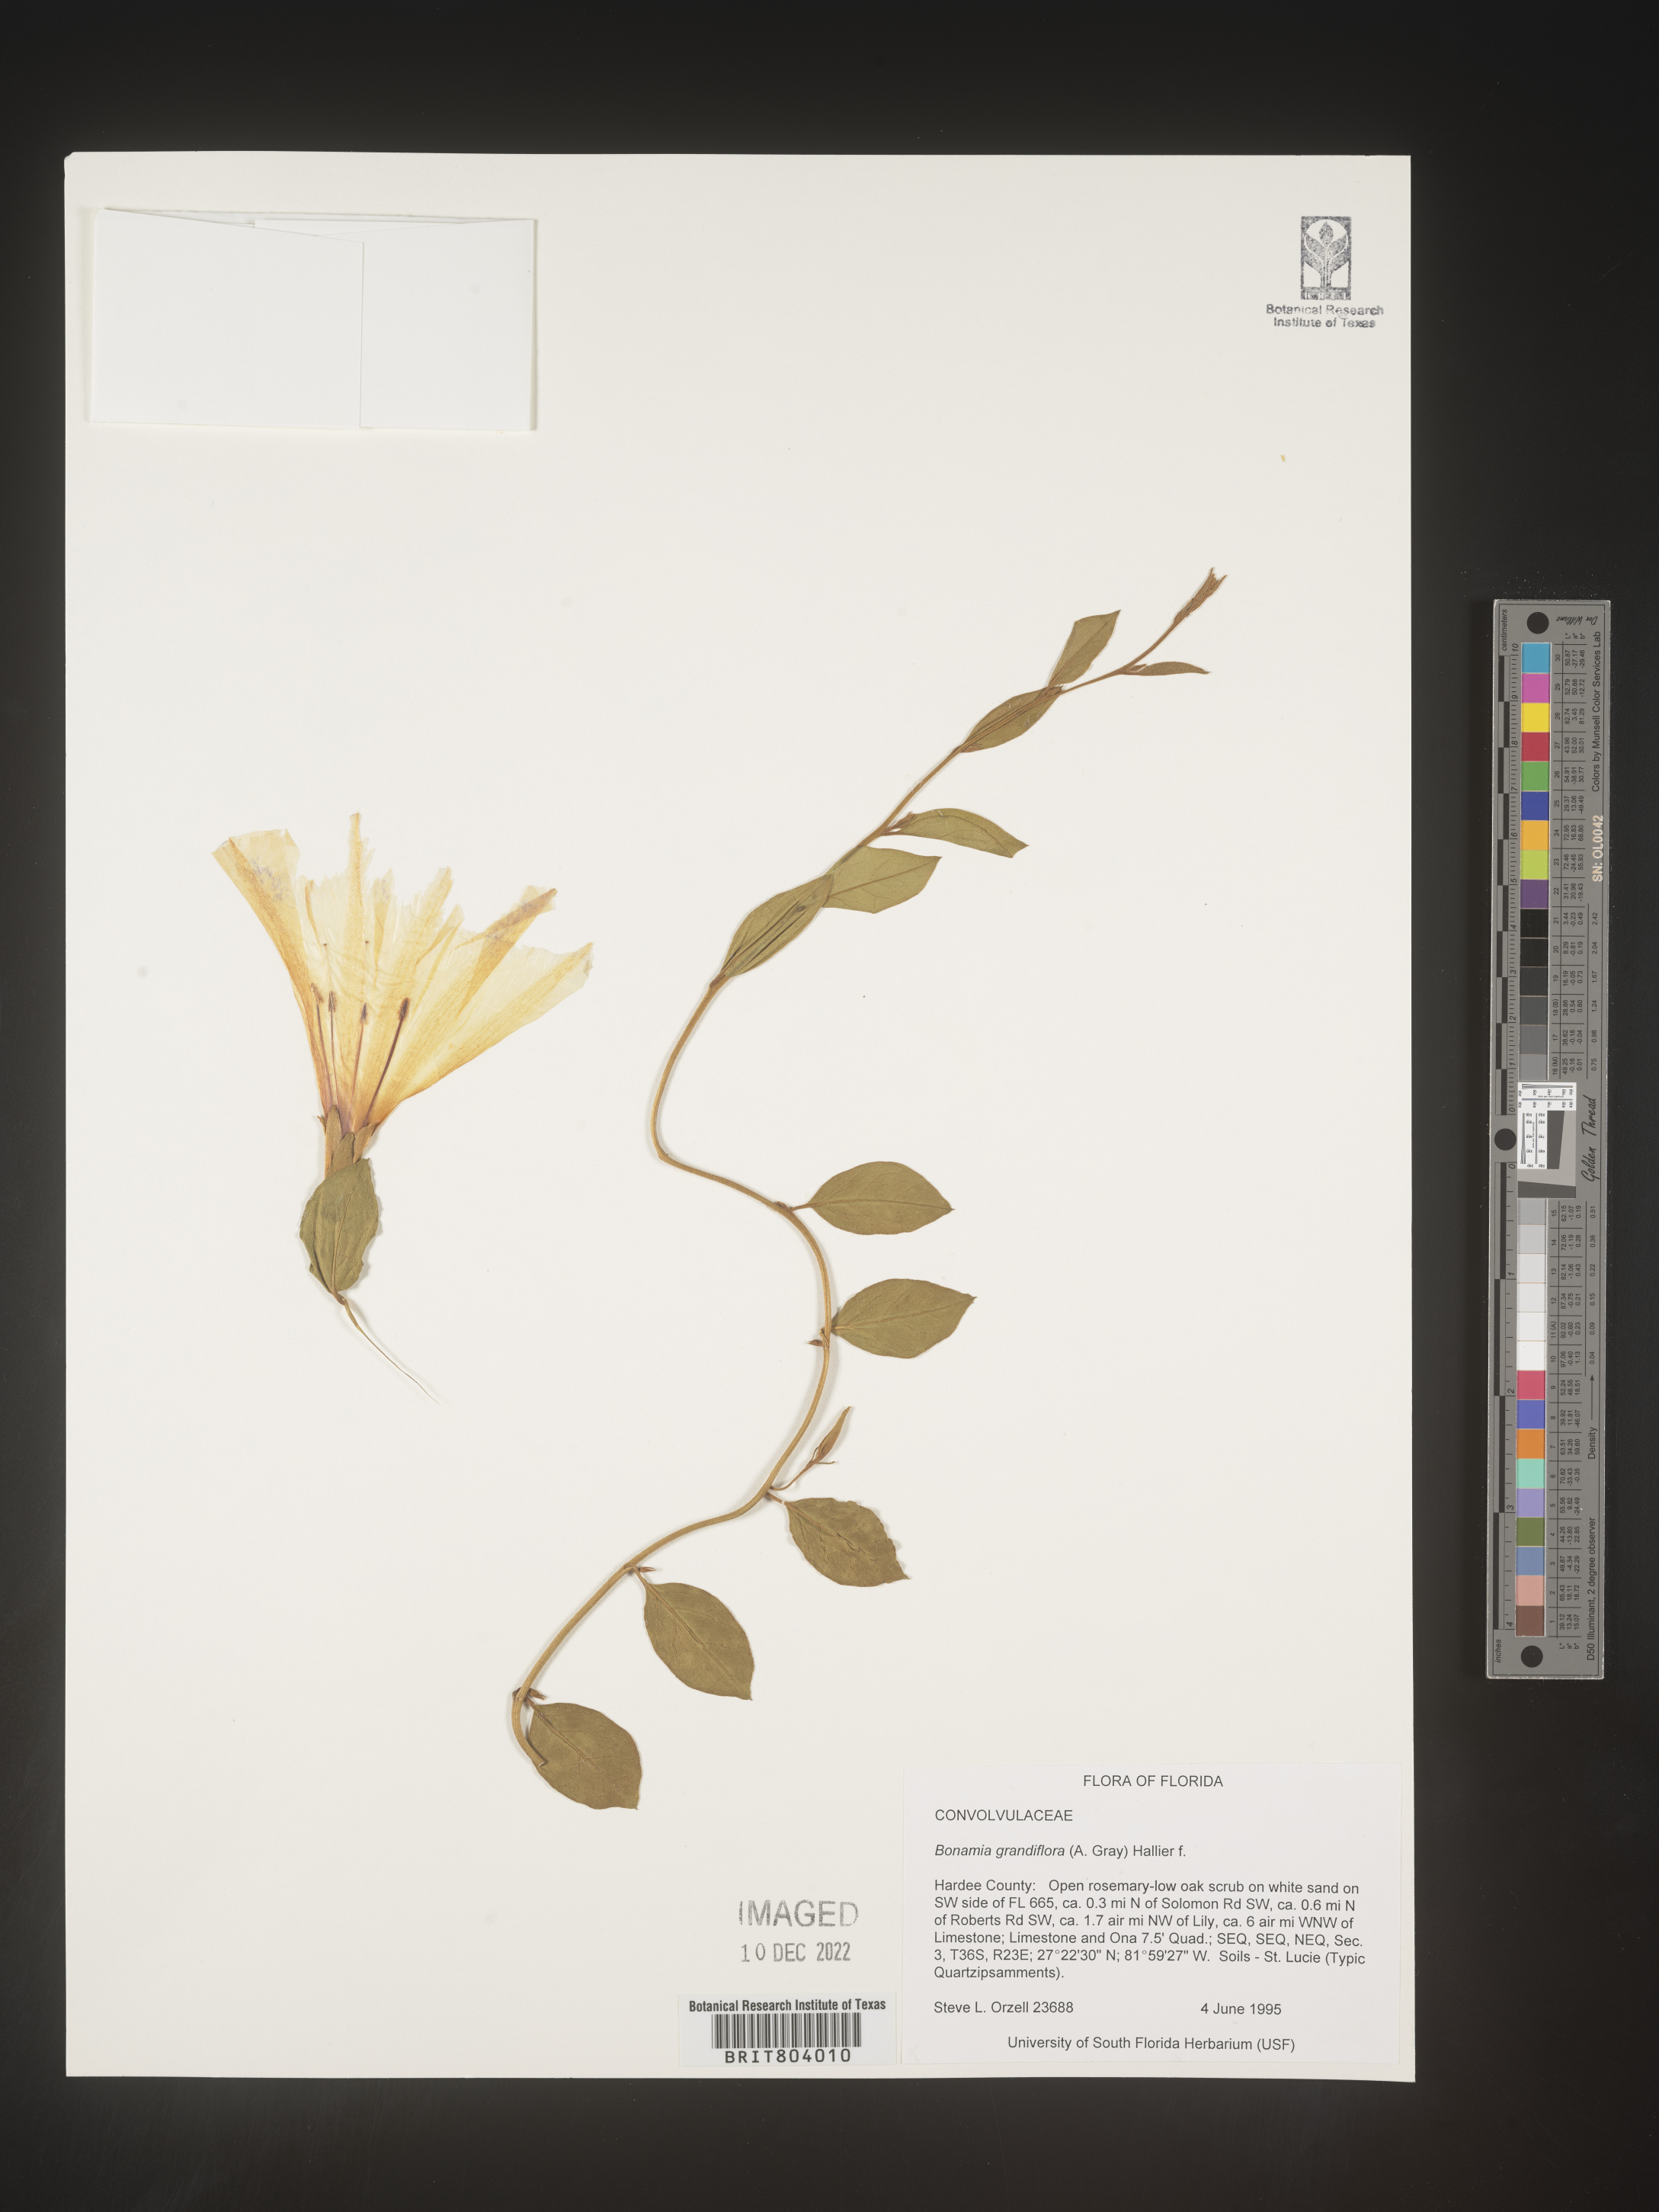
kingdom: Plantae
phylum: Tracheophyta
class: Magnoliopsida
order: Solanales
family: Convolvulaceae
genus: Bonamia
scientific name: Bonamia
